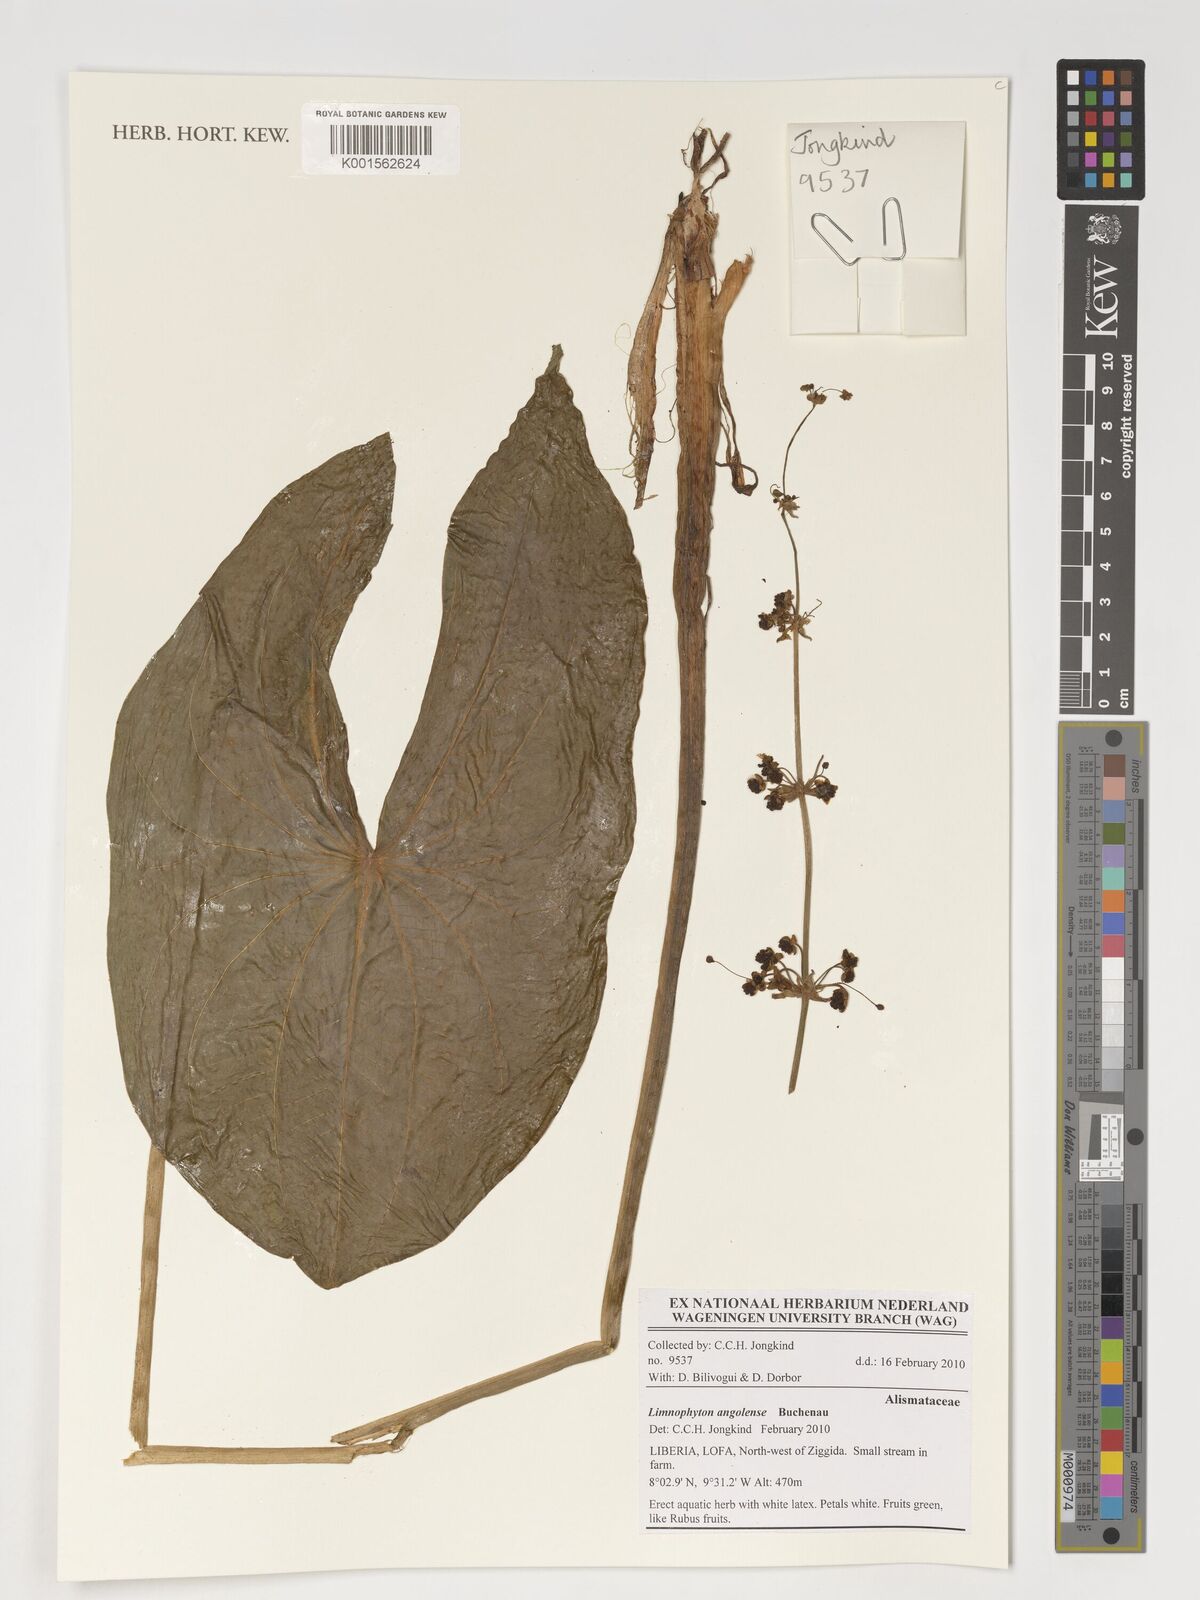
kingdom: Plantae
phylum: Tracheophyta
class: Liliopsida
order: Alismatales
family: Alismataceae
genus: Limnophyton
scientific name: Limnophyton angolense
